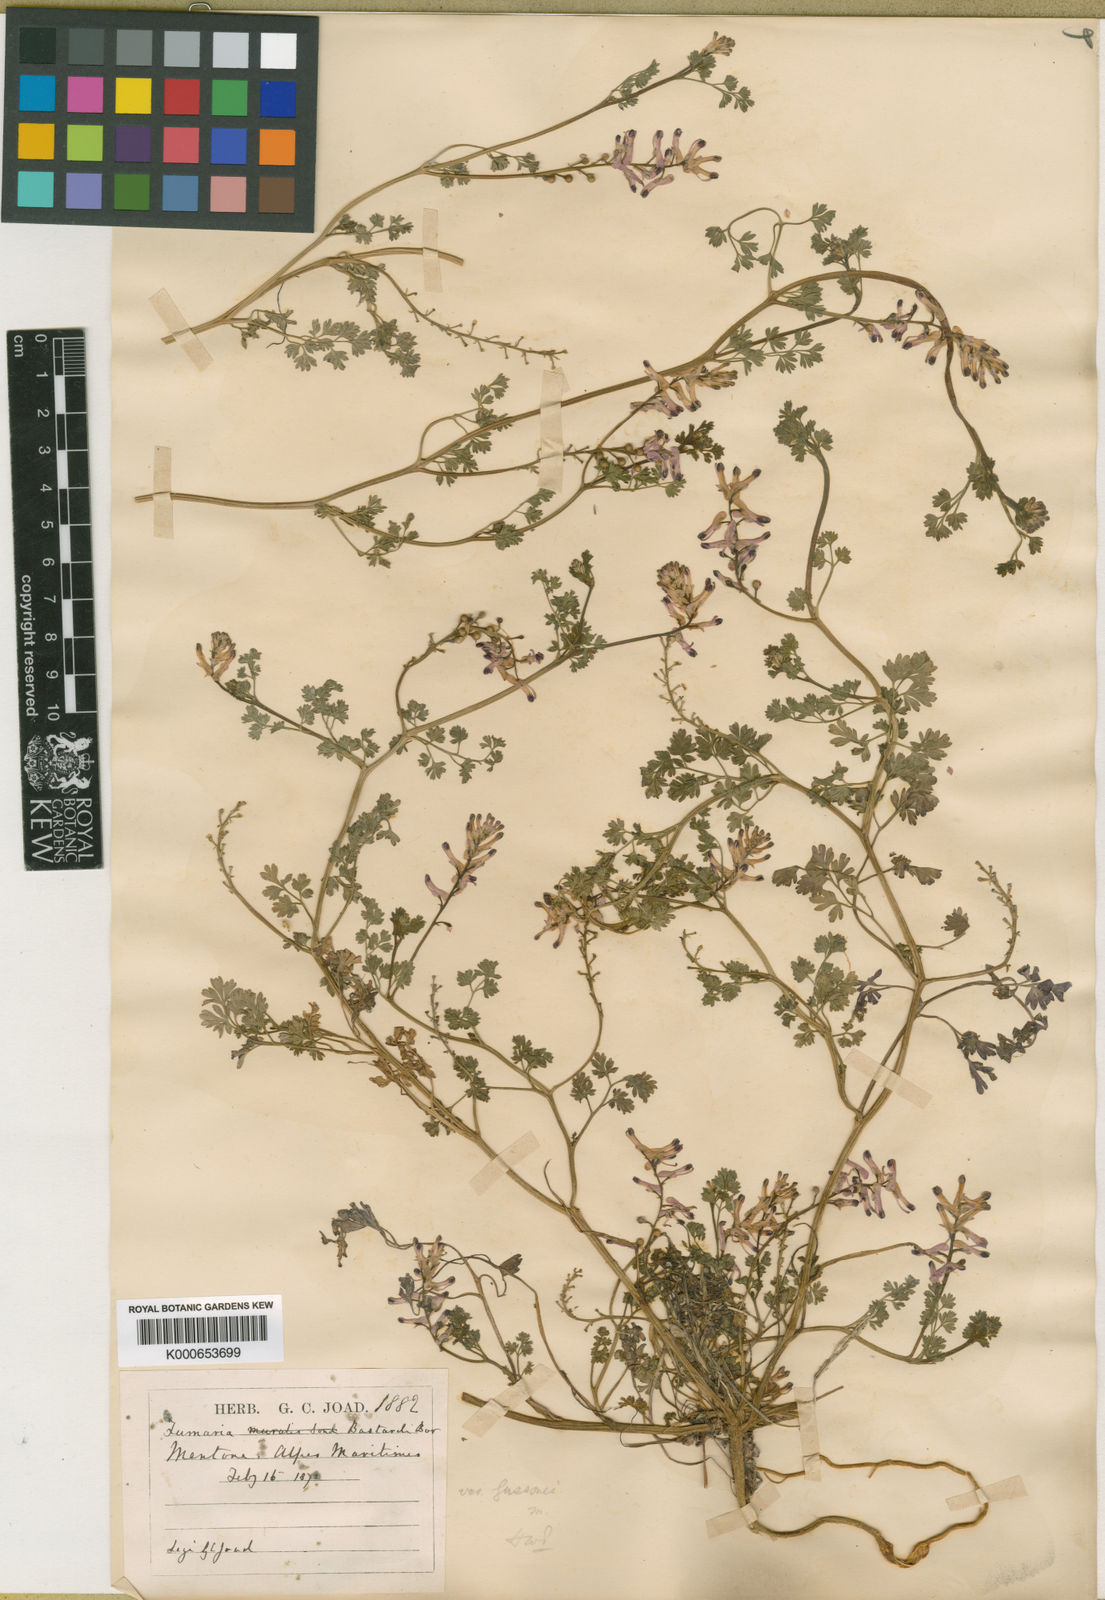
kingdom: Plantae
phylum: Tracheophyta
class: Magnoliopsida
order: Ranunculales
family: Papaveraceae
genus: Fumaria
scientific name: Fumaria bastardii
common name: Tall ramping-fumitory
